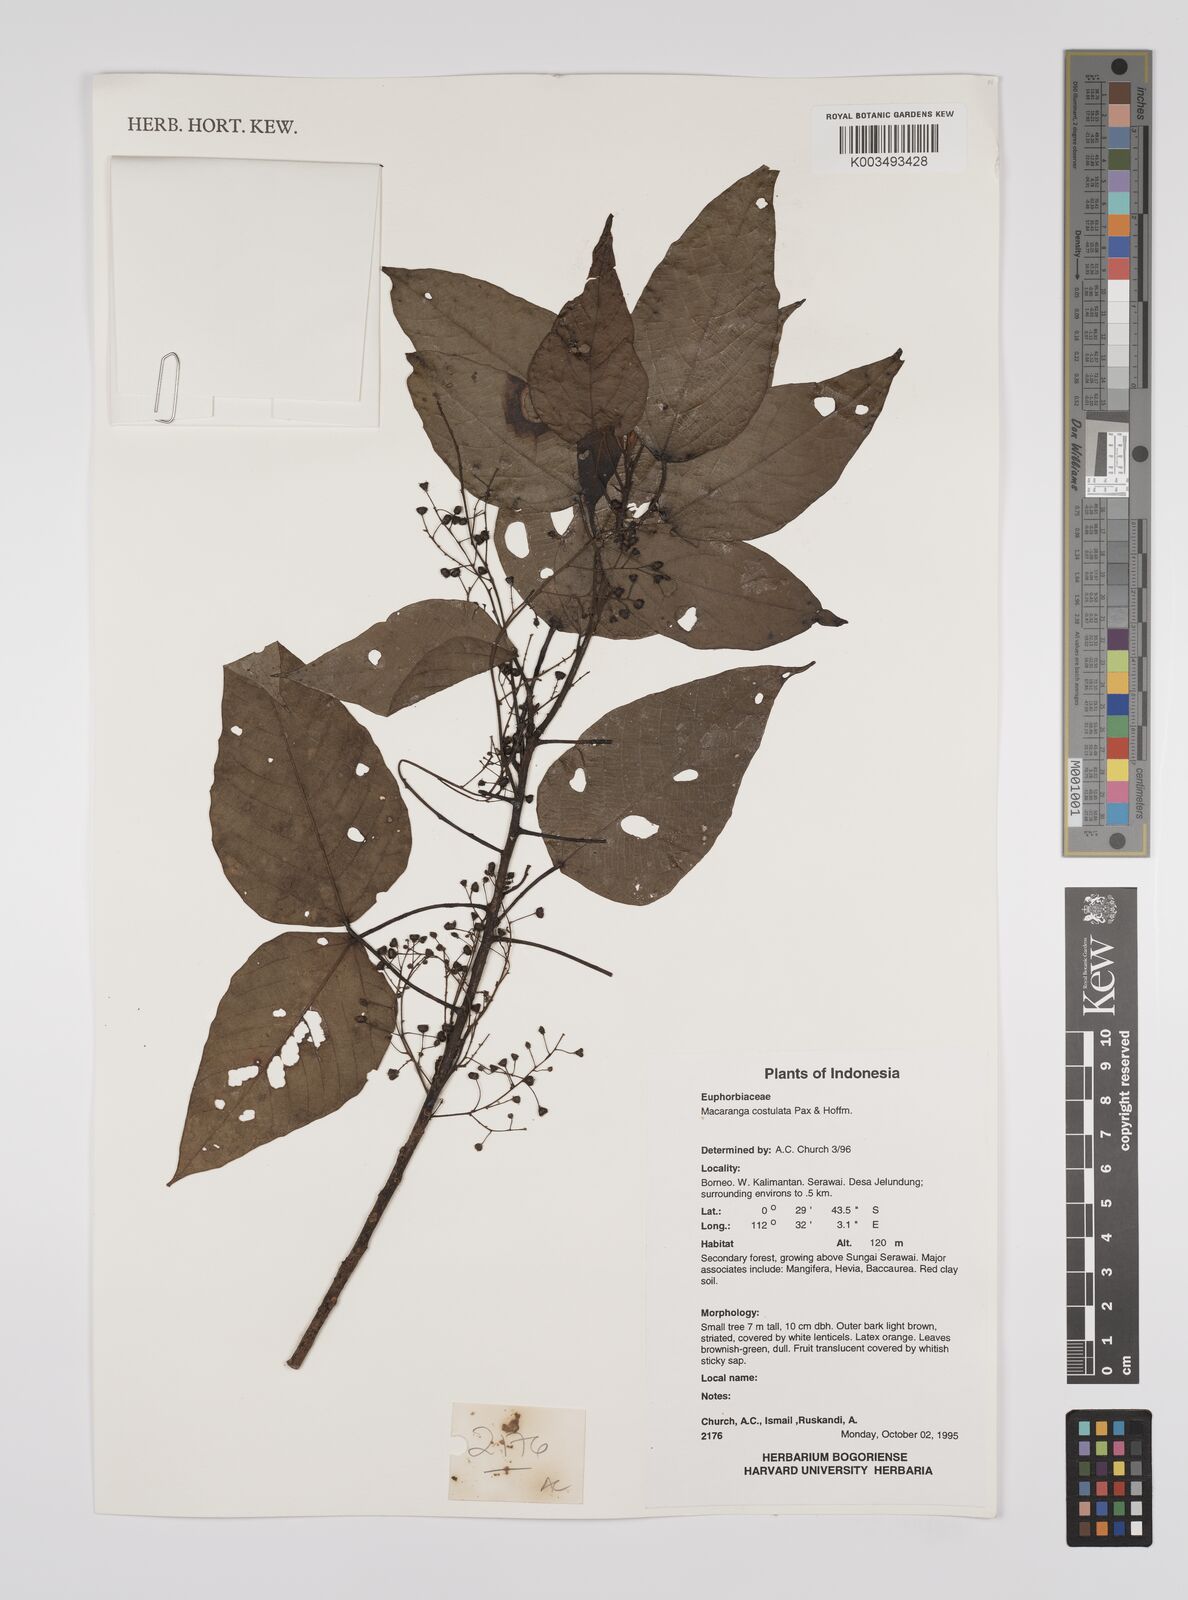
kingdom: Plantae
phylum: Tracheophyta
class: Magnoliopsida
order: Malpighiales
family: Euphorbiaceae
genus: Macaranga
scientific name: Macaranga costulata
